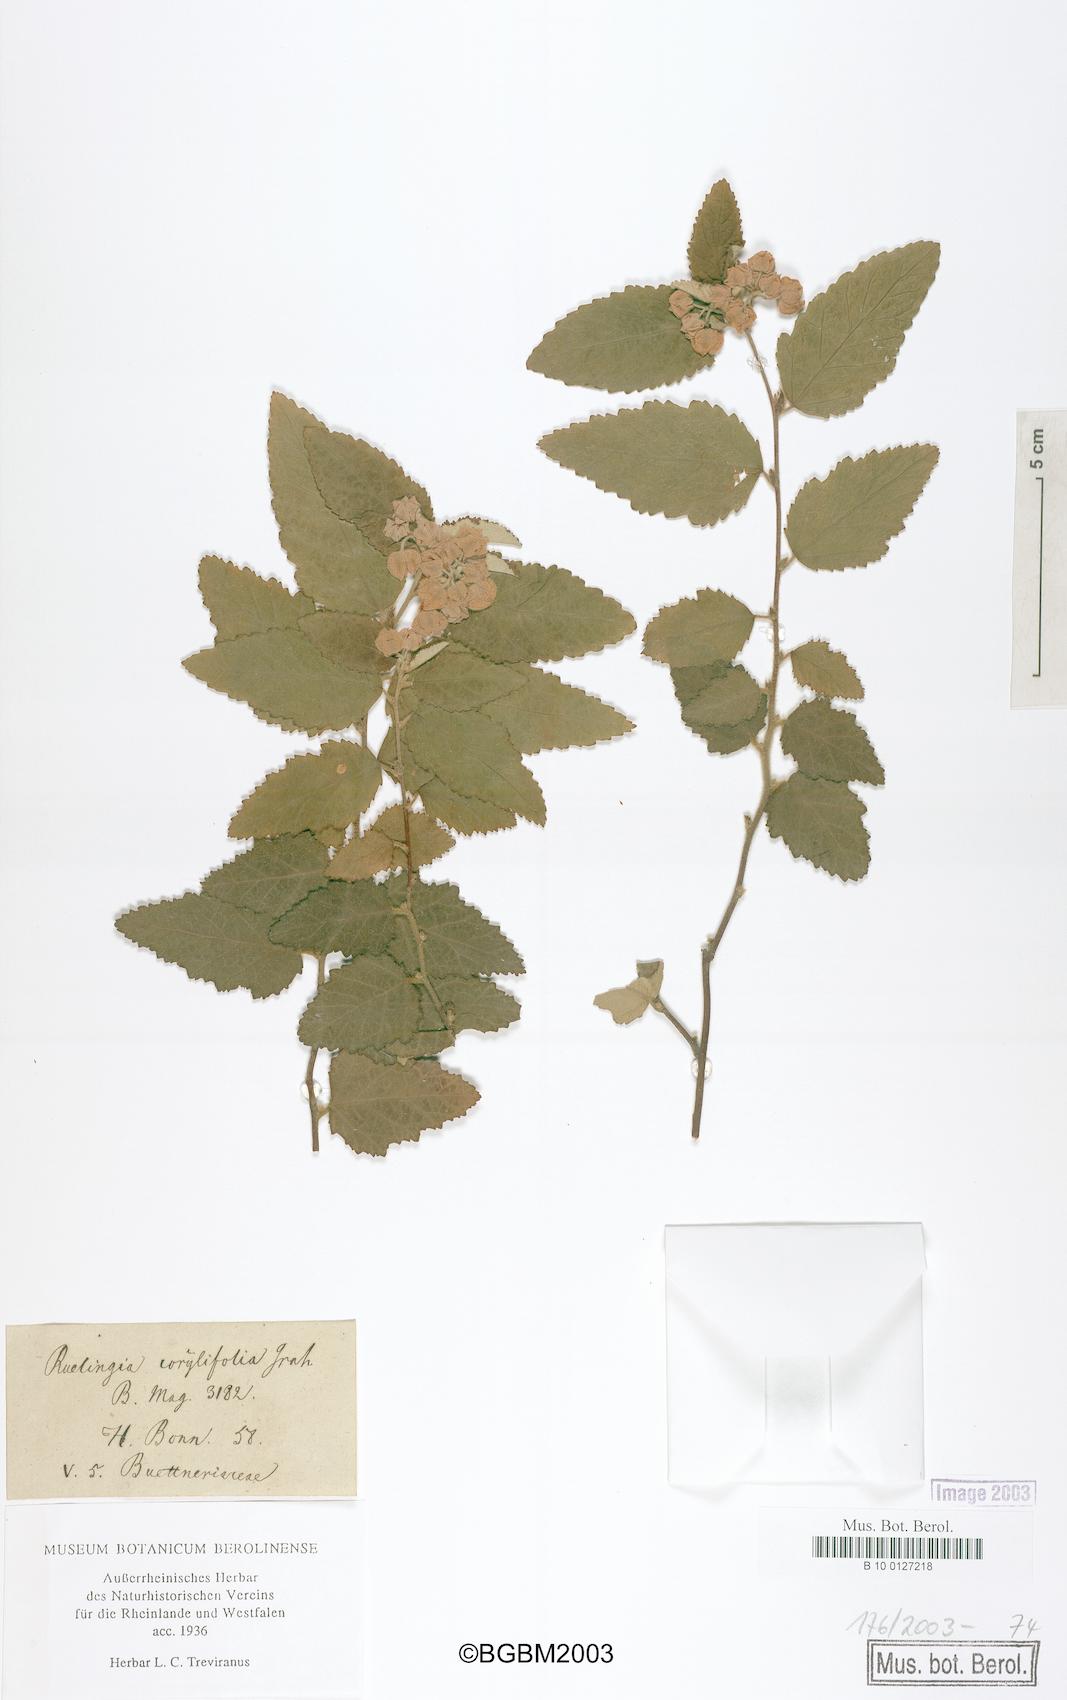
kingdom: Plantae
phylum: Tracheophyta
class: Magnoliopsida
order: Malvales
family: Malvaceae
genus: Commersonia
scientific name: Commersonia corylifolia
